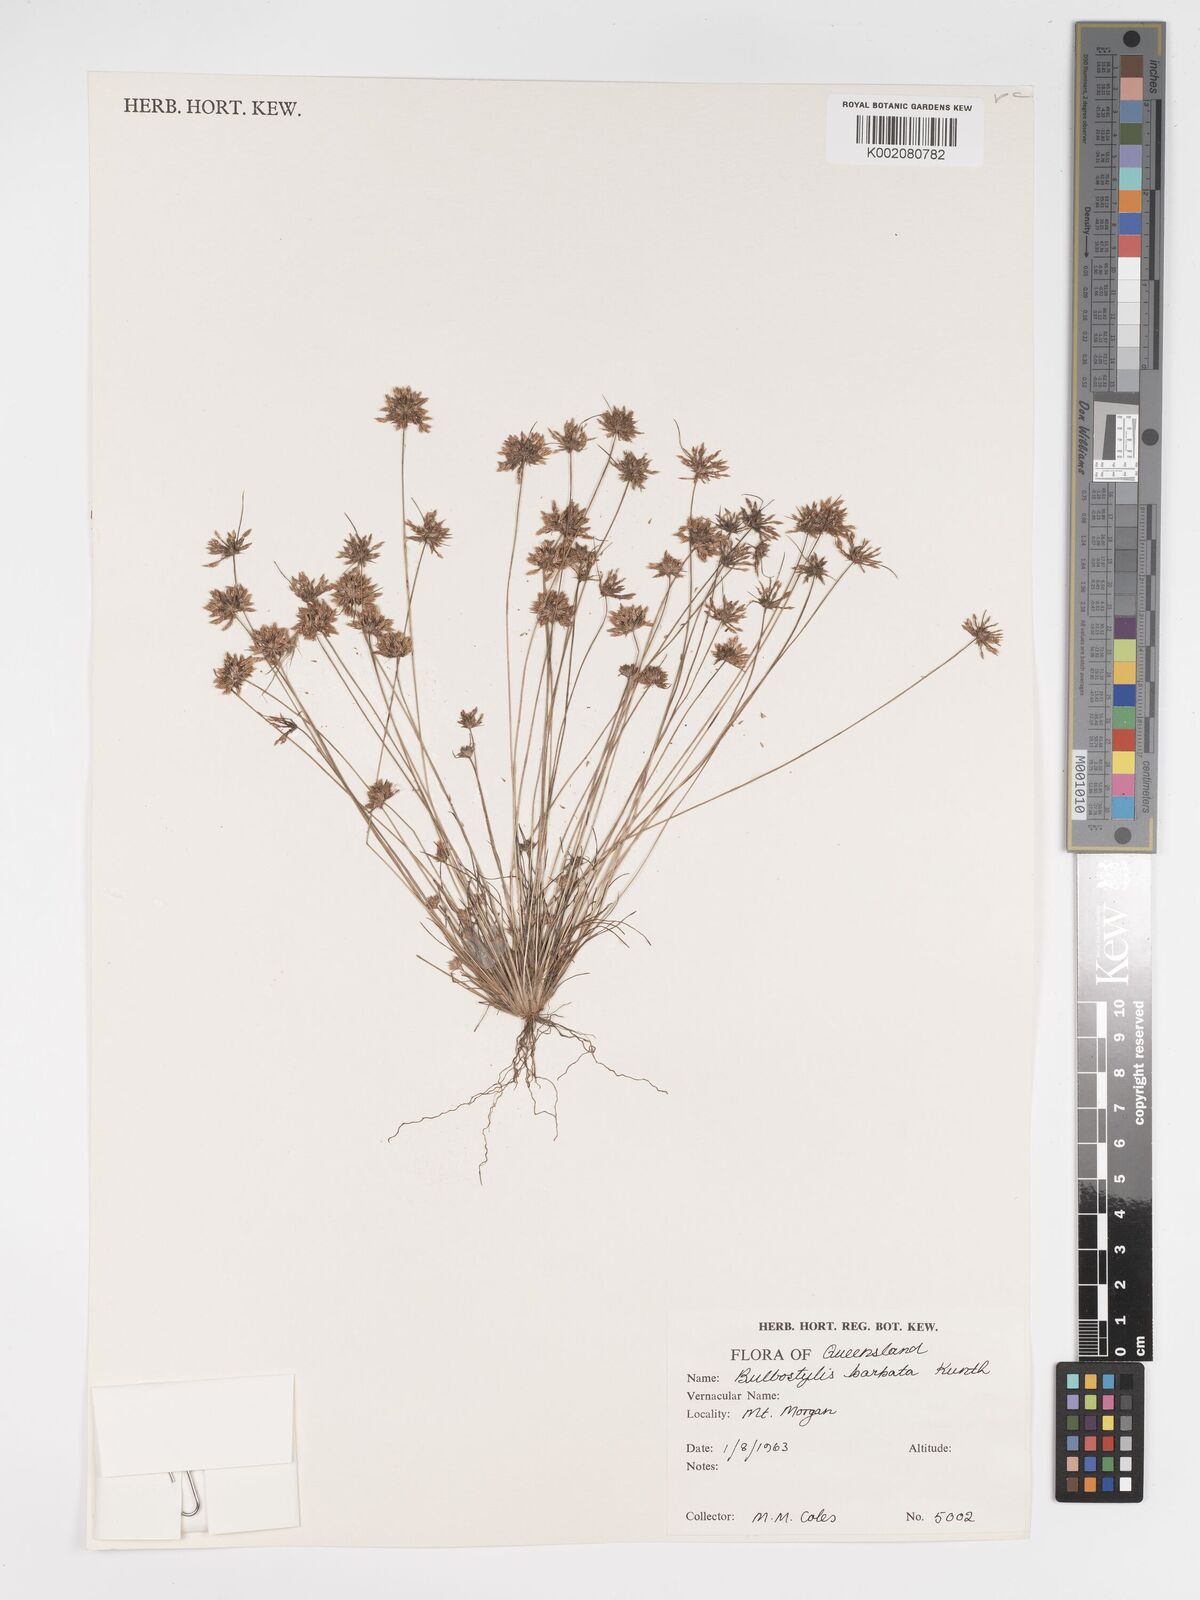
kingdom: Plantae
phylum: Tracheophyta
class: Liliopsida
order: Poales
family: Cyperaceae
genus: Bulbostylis
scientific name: Bulbostylis barbata
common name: Watergrass
